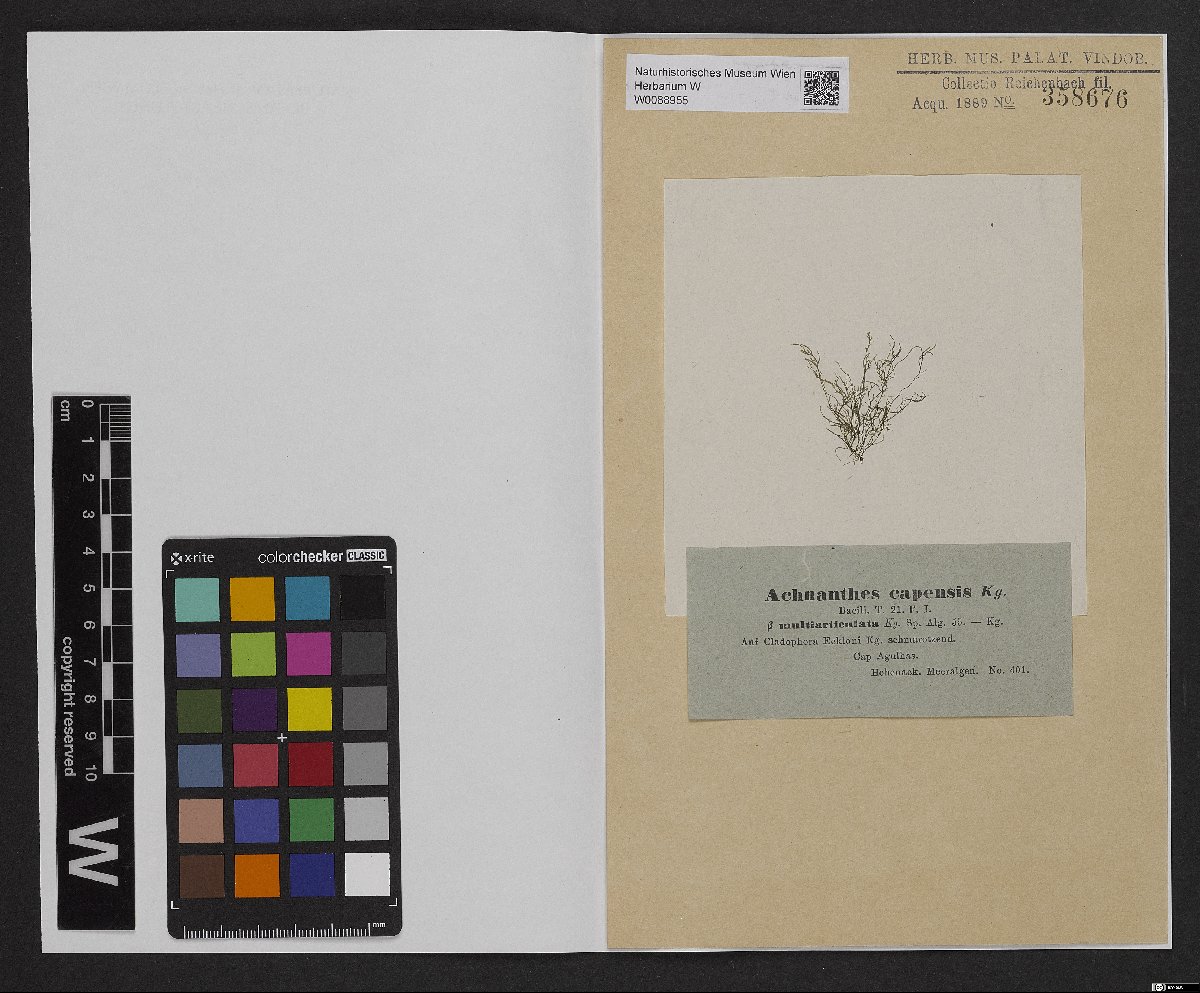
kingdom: Chromista
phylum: Ochrophyta
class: Bacillariophyceae
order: Achnanthales
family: Achnanthaceae
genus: Achnanthes
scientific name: Achnanthes capensis
